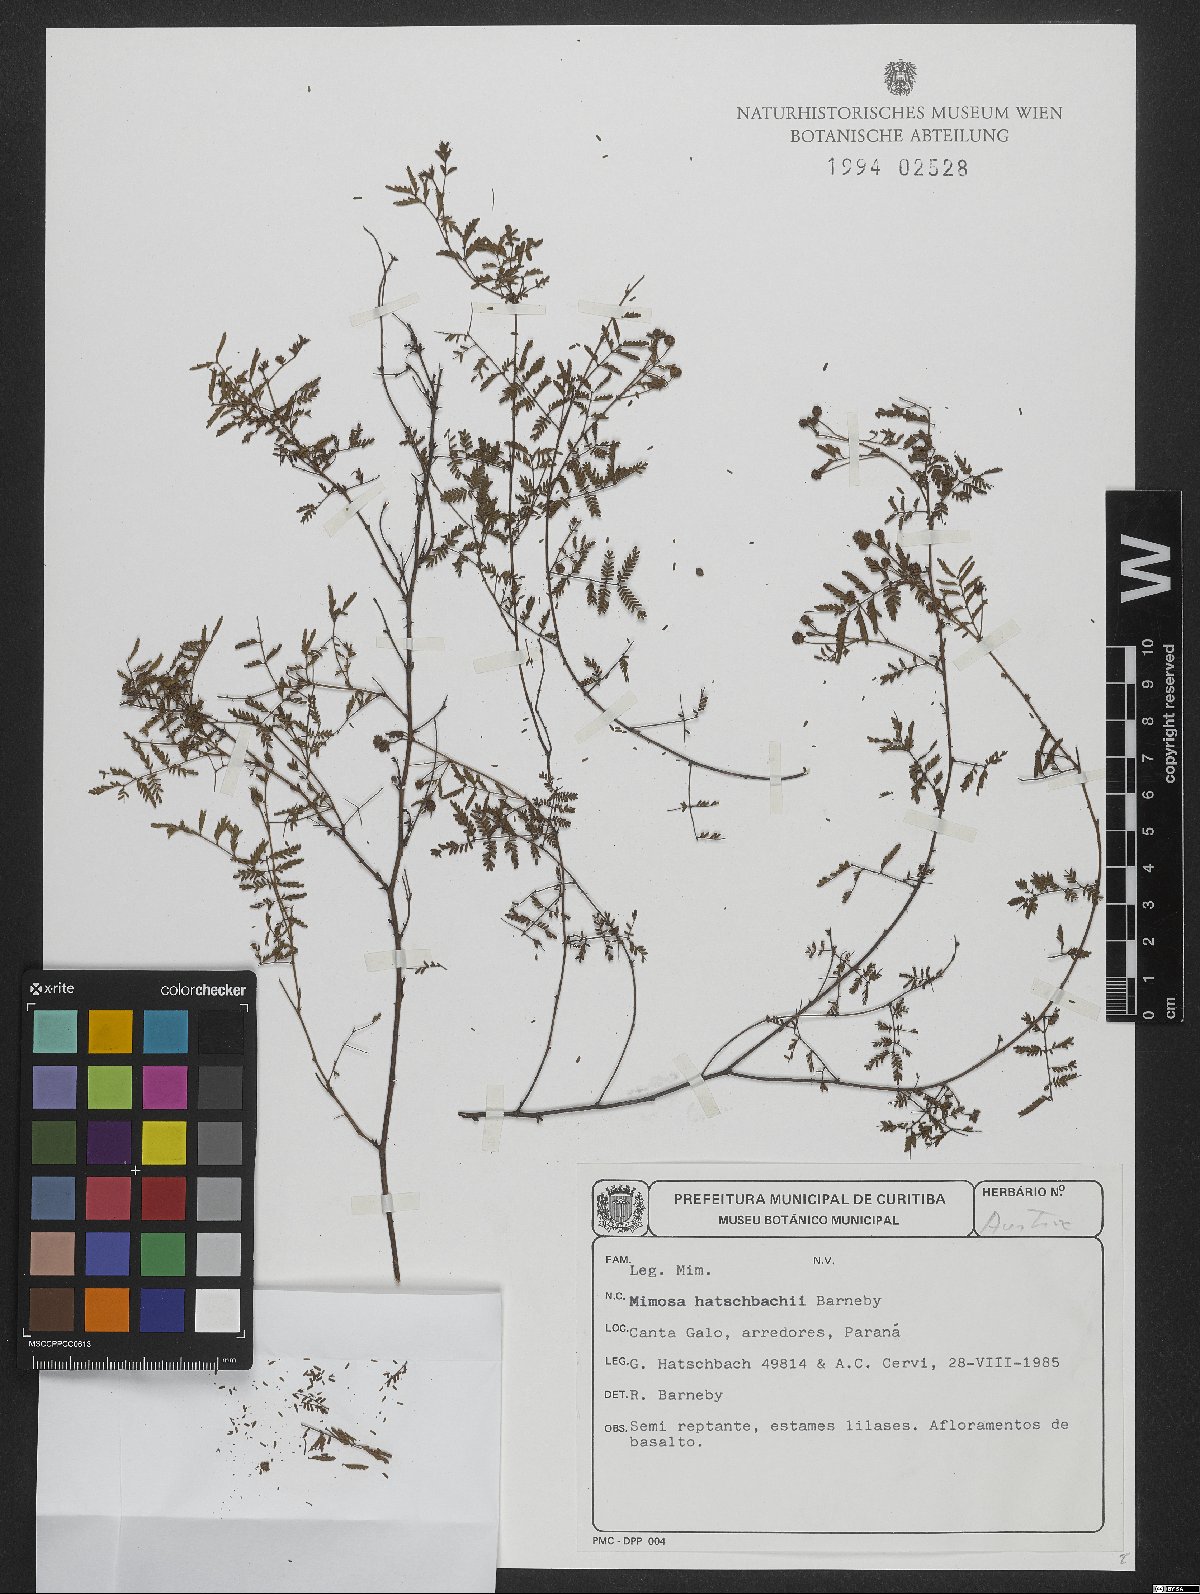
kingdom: Plantae
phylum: Tracheophyta
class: Magnoliopsida
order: Fabales
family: Fabaceae
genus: Mimosa
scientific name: Mimosa hatschbachii
